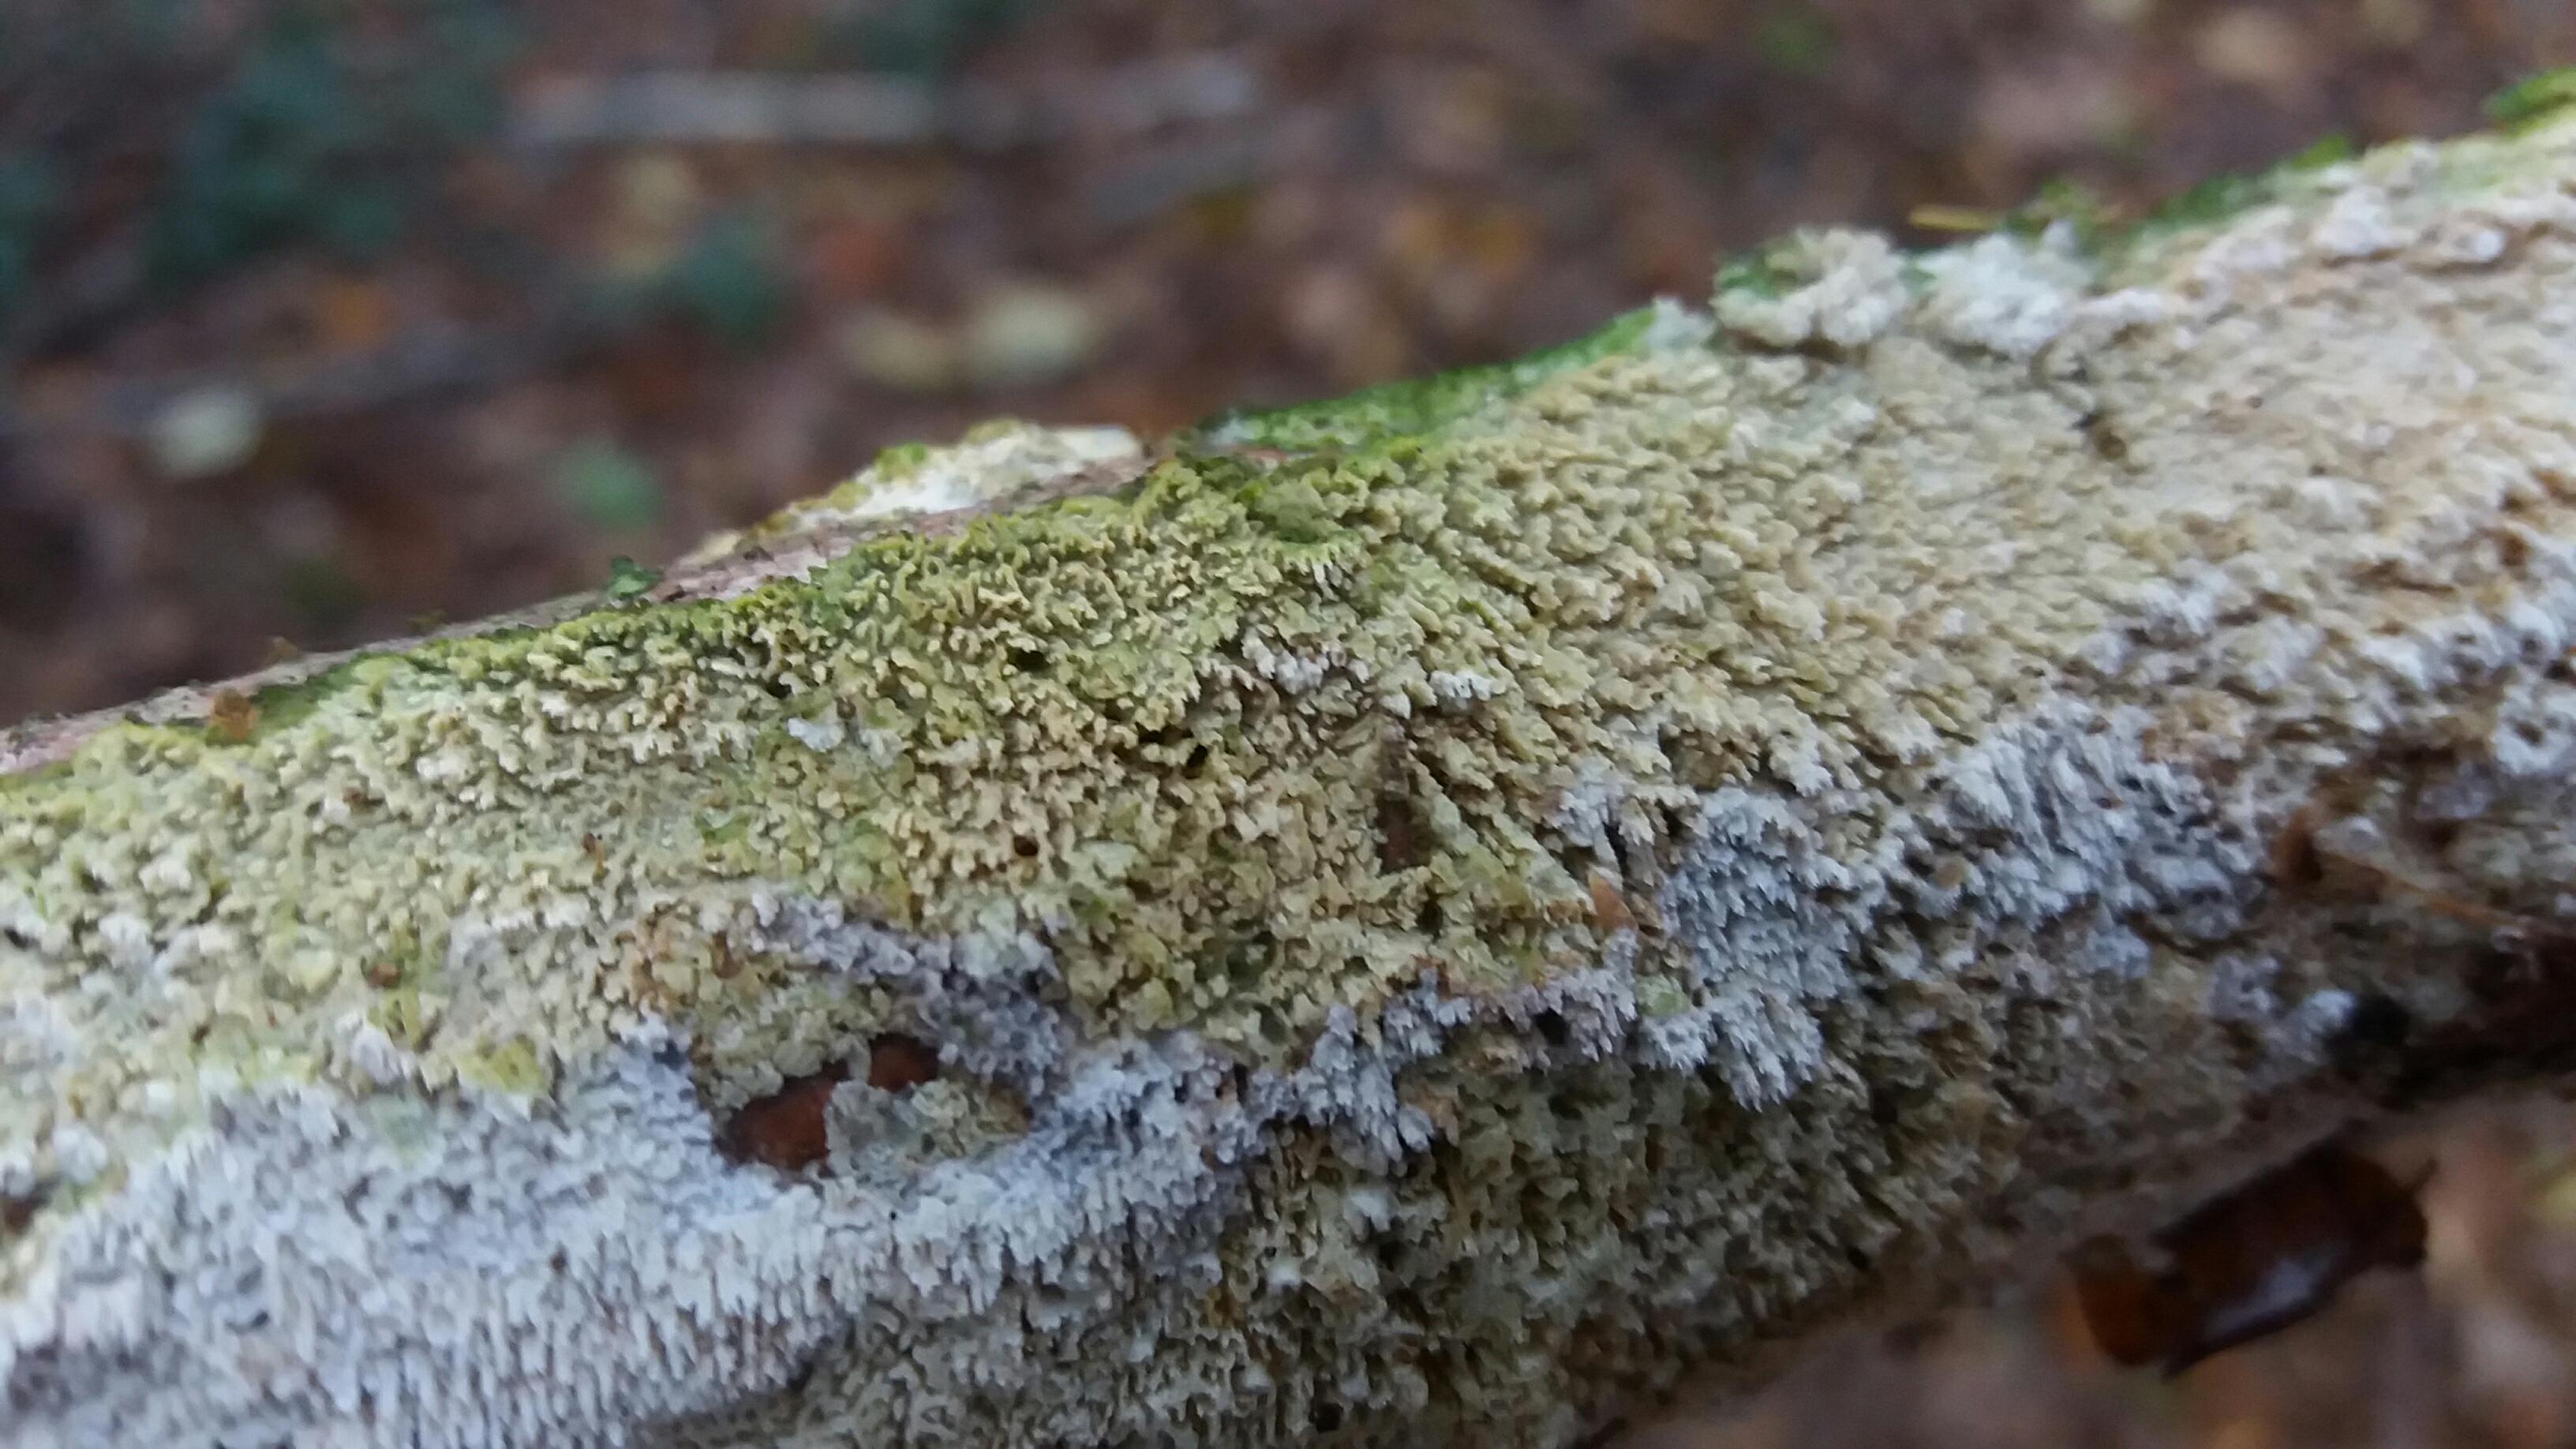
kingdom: Fungi
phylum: Basidiomycota
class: Agaricomycetes
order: Hymenochaetales
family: Schizoporaceae
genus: Schizopora
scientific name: Schizopora paradoxa
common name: hvid tandsvamp
